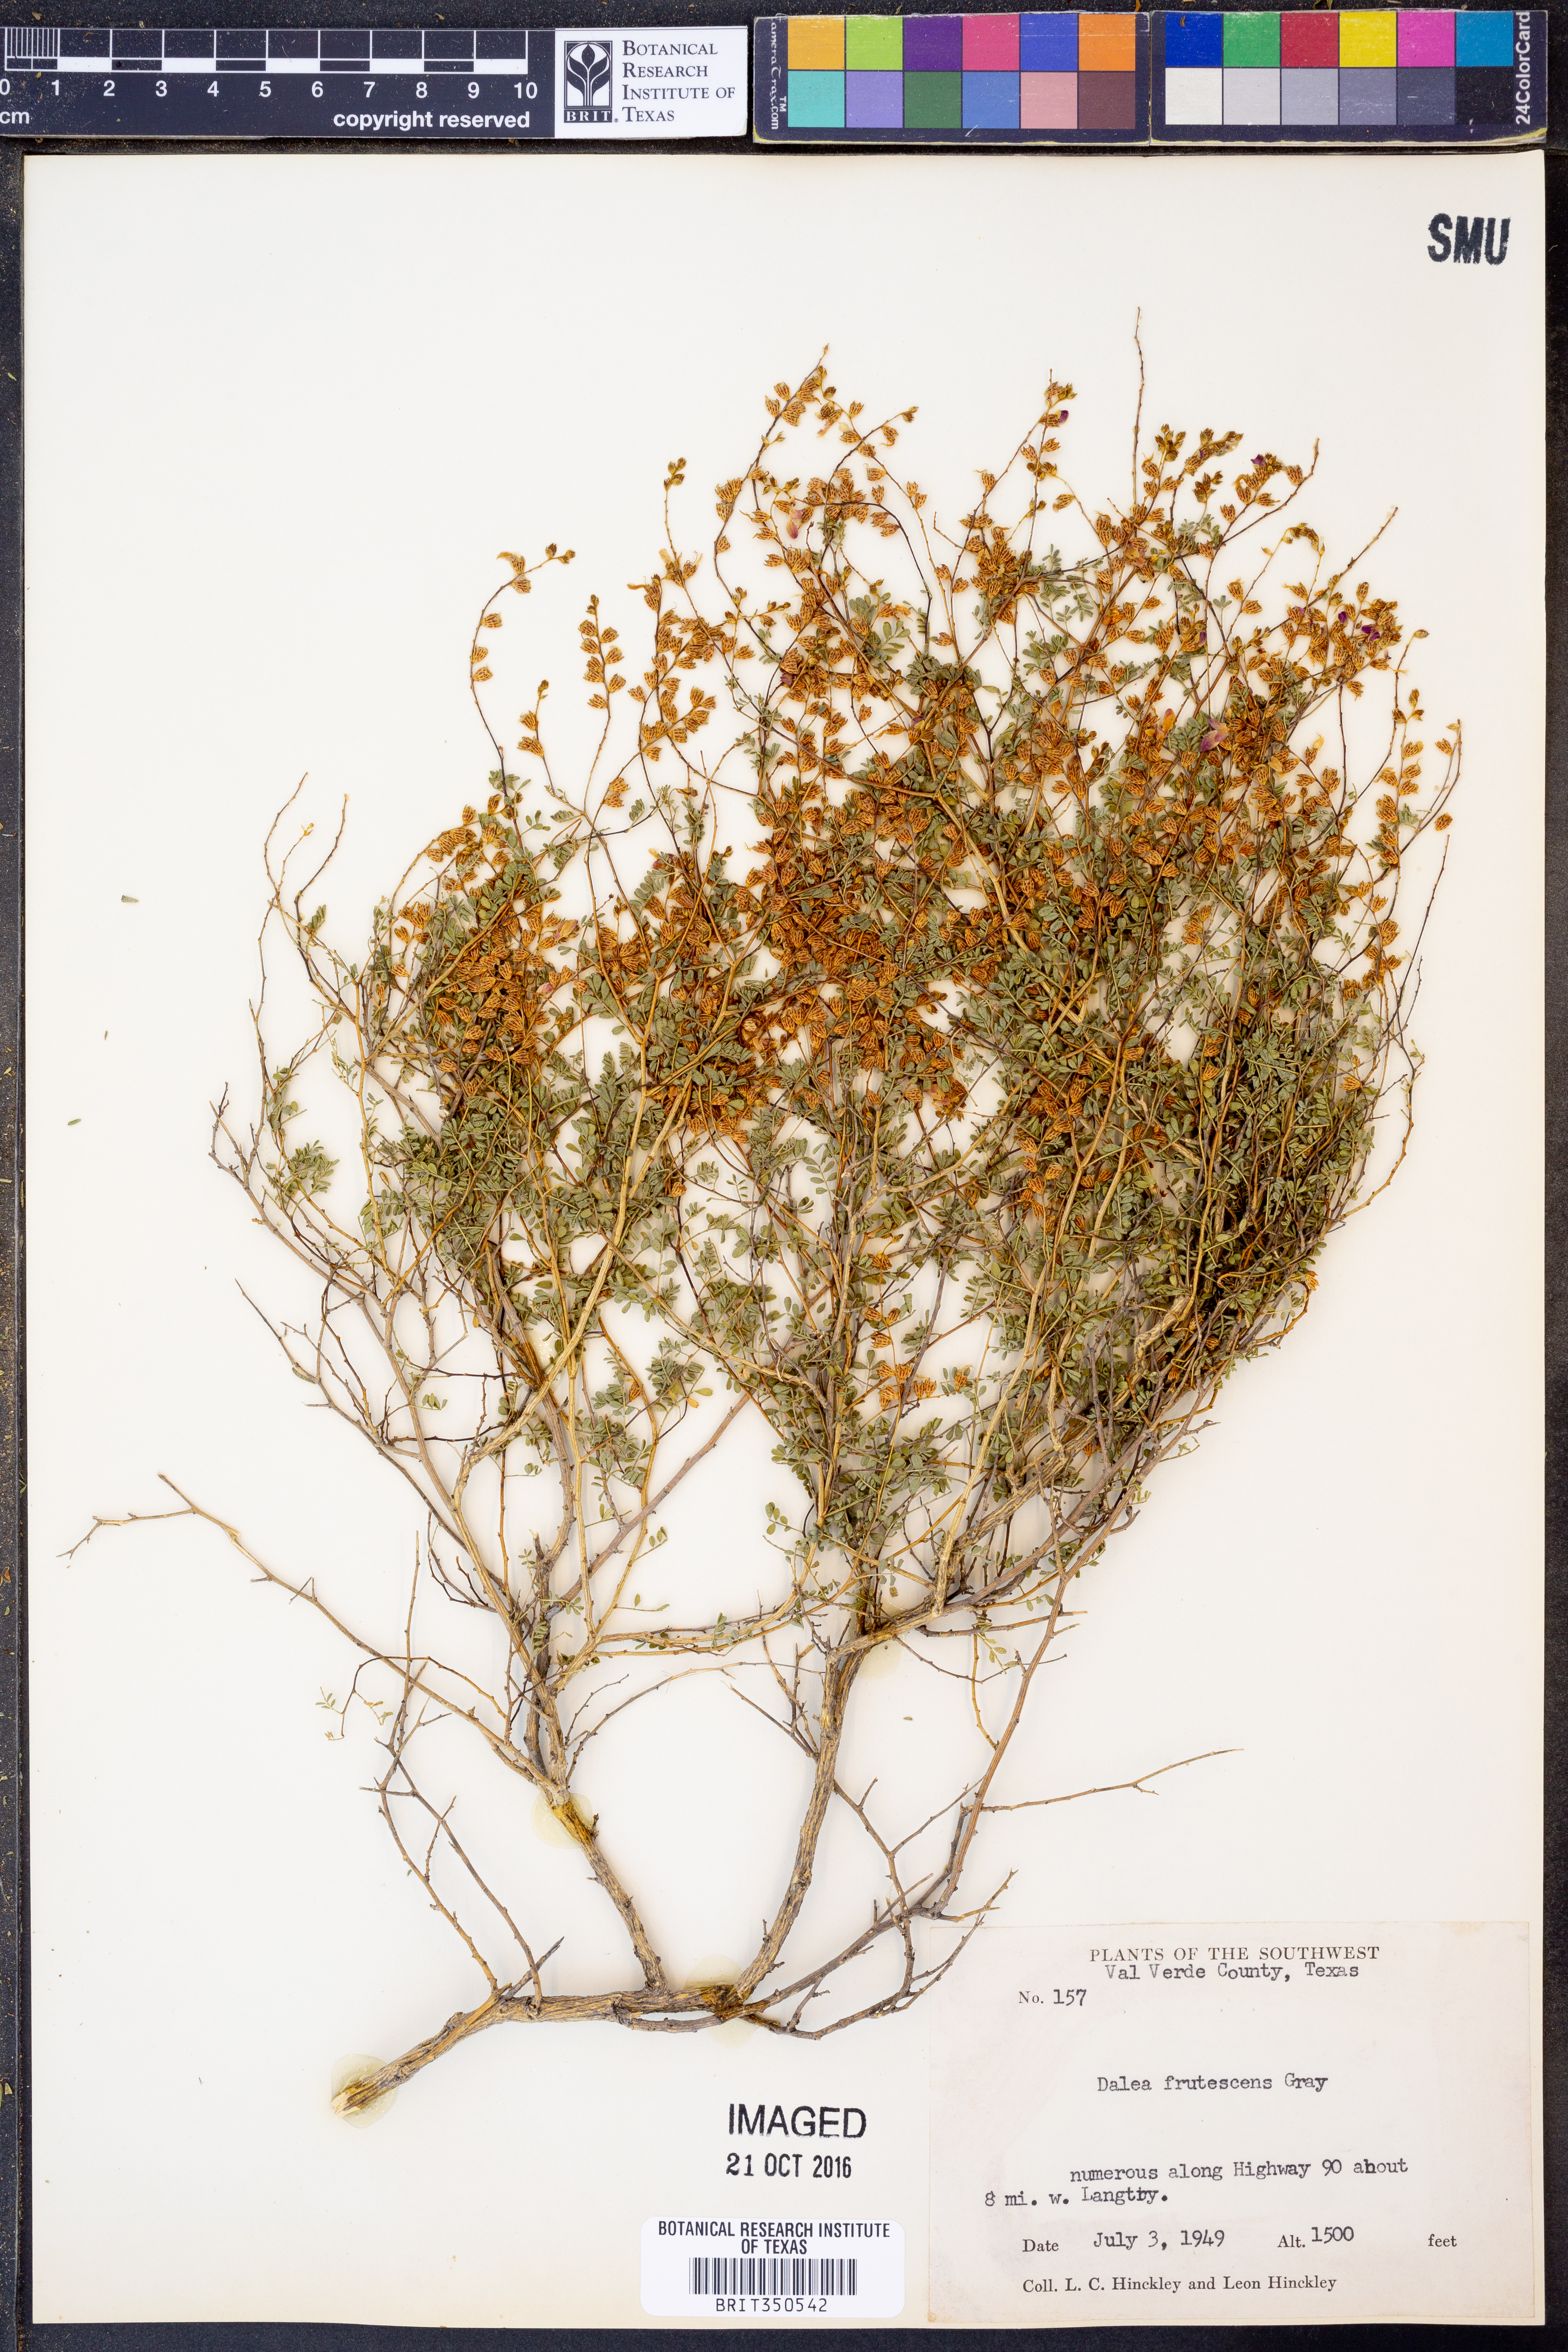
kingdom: Plantae
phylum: Tracheophyta
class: Magnoliopsida
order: Fabales
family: Fabaceae
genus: Dalea
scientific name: Dalea frutescens
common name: Black dalea
